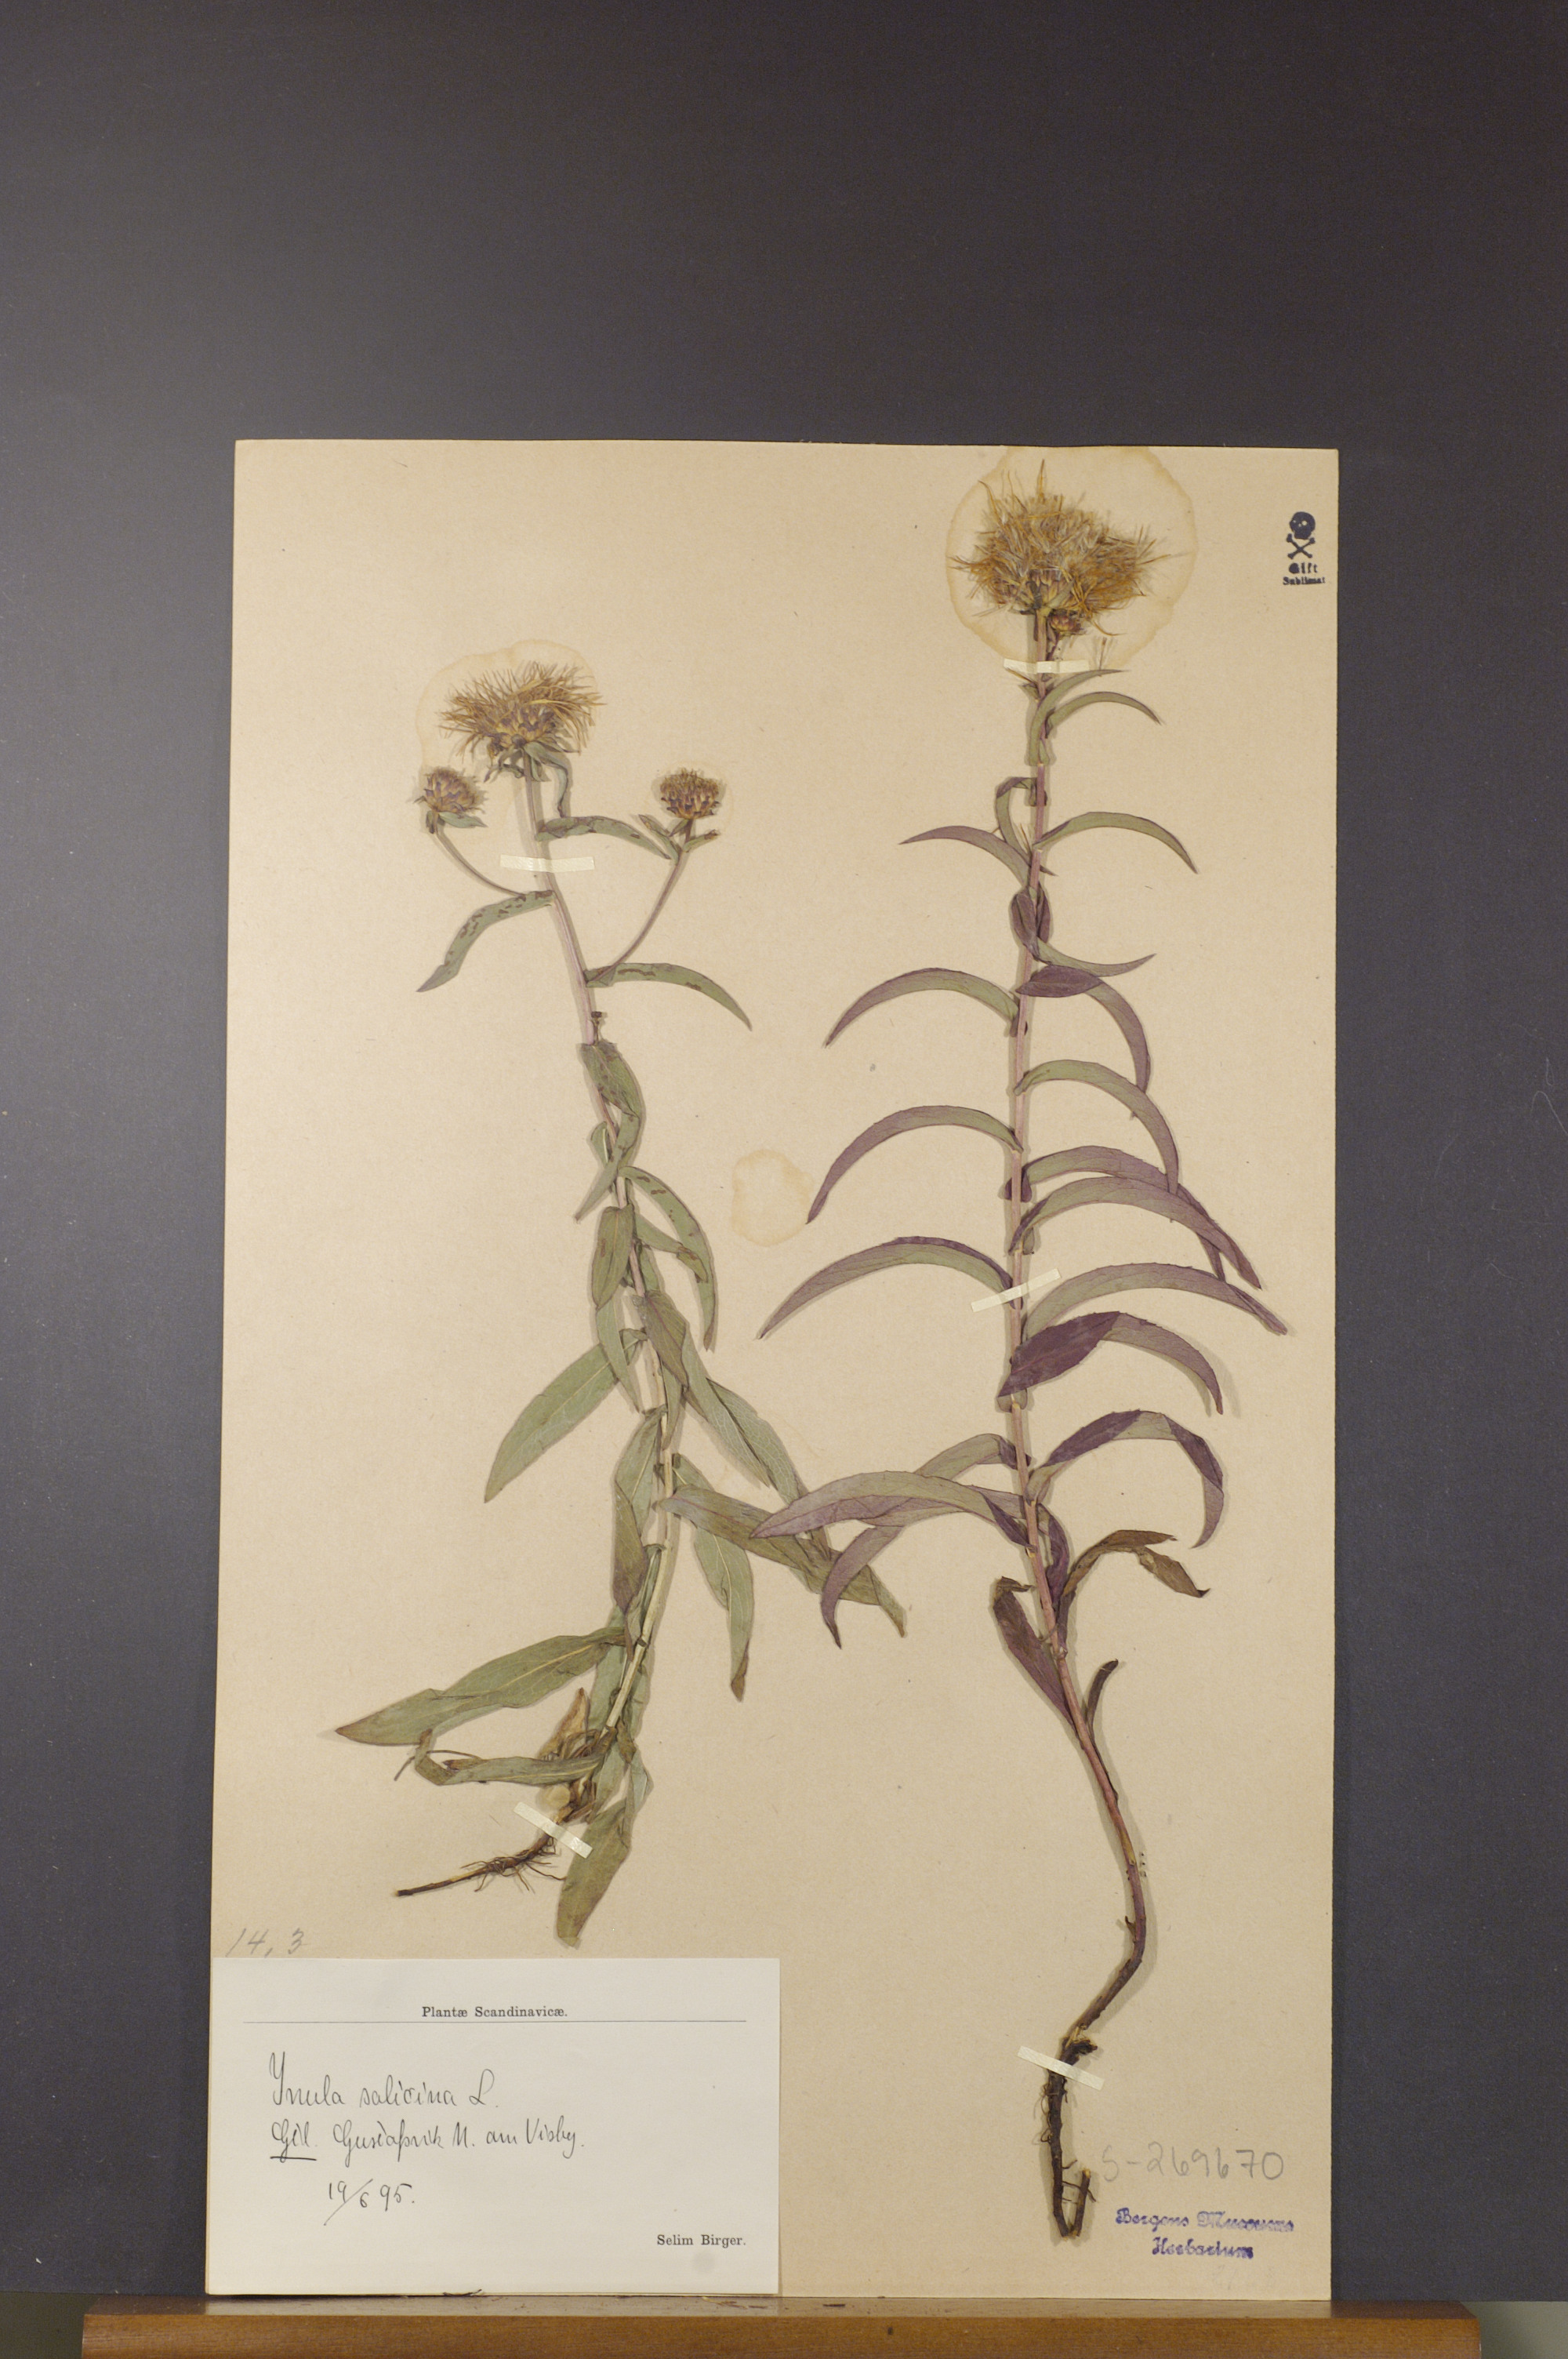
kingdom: Plantae
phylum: Tracheophyta
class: Magnoliopsida
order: Asterales
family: Asteraceae
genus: Pentanema
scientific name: Pentanema salicinum
